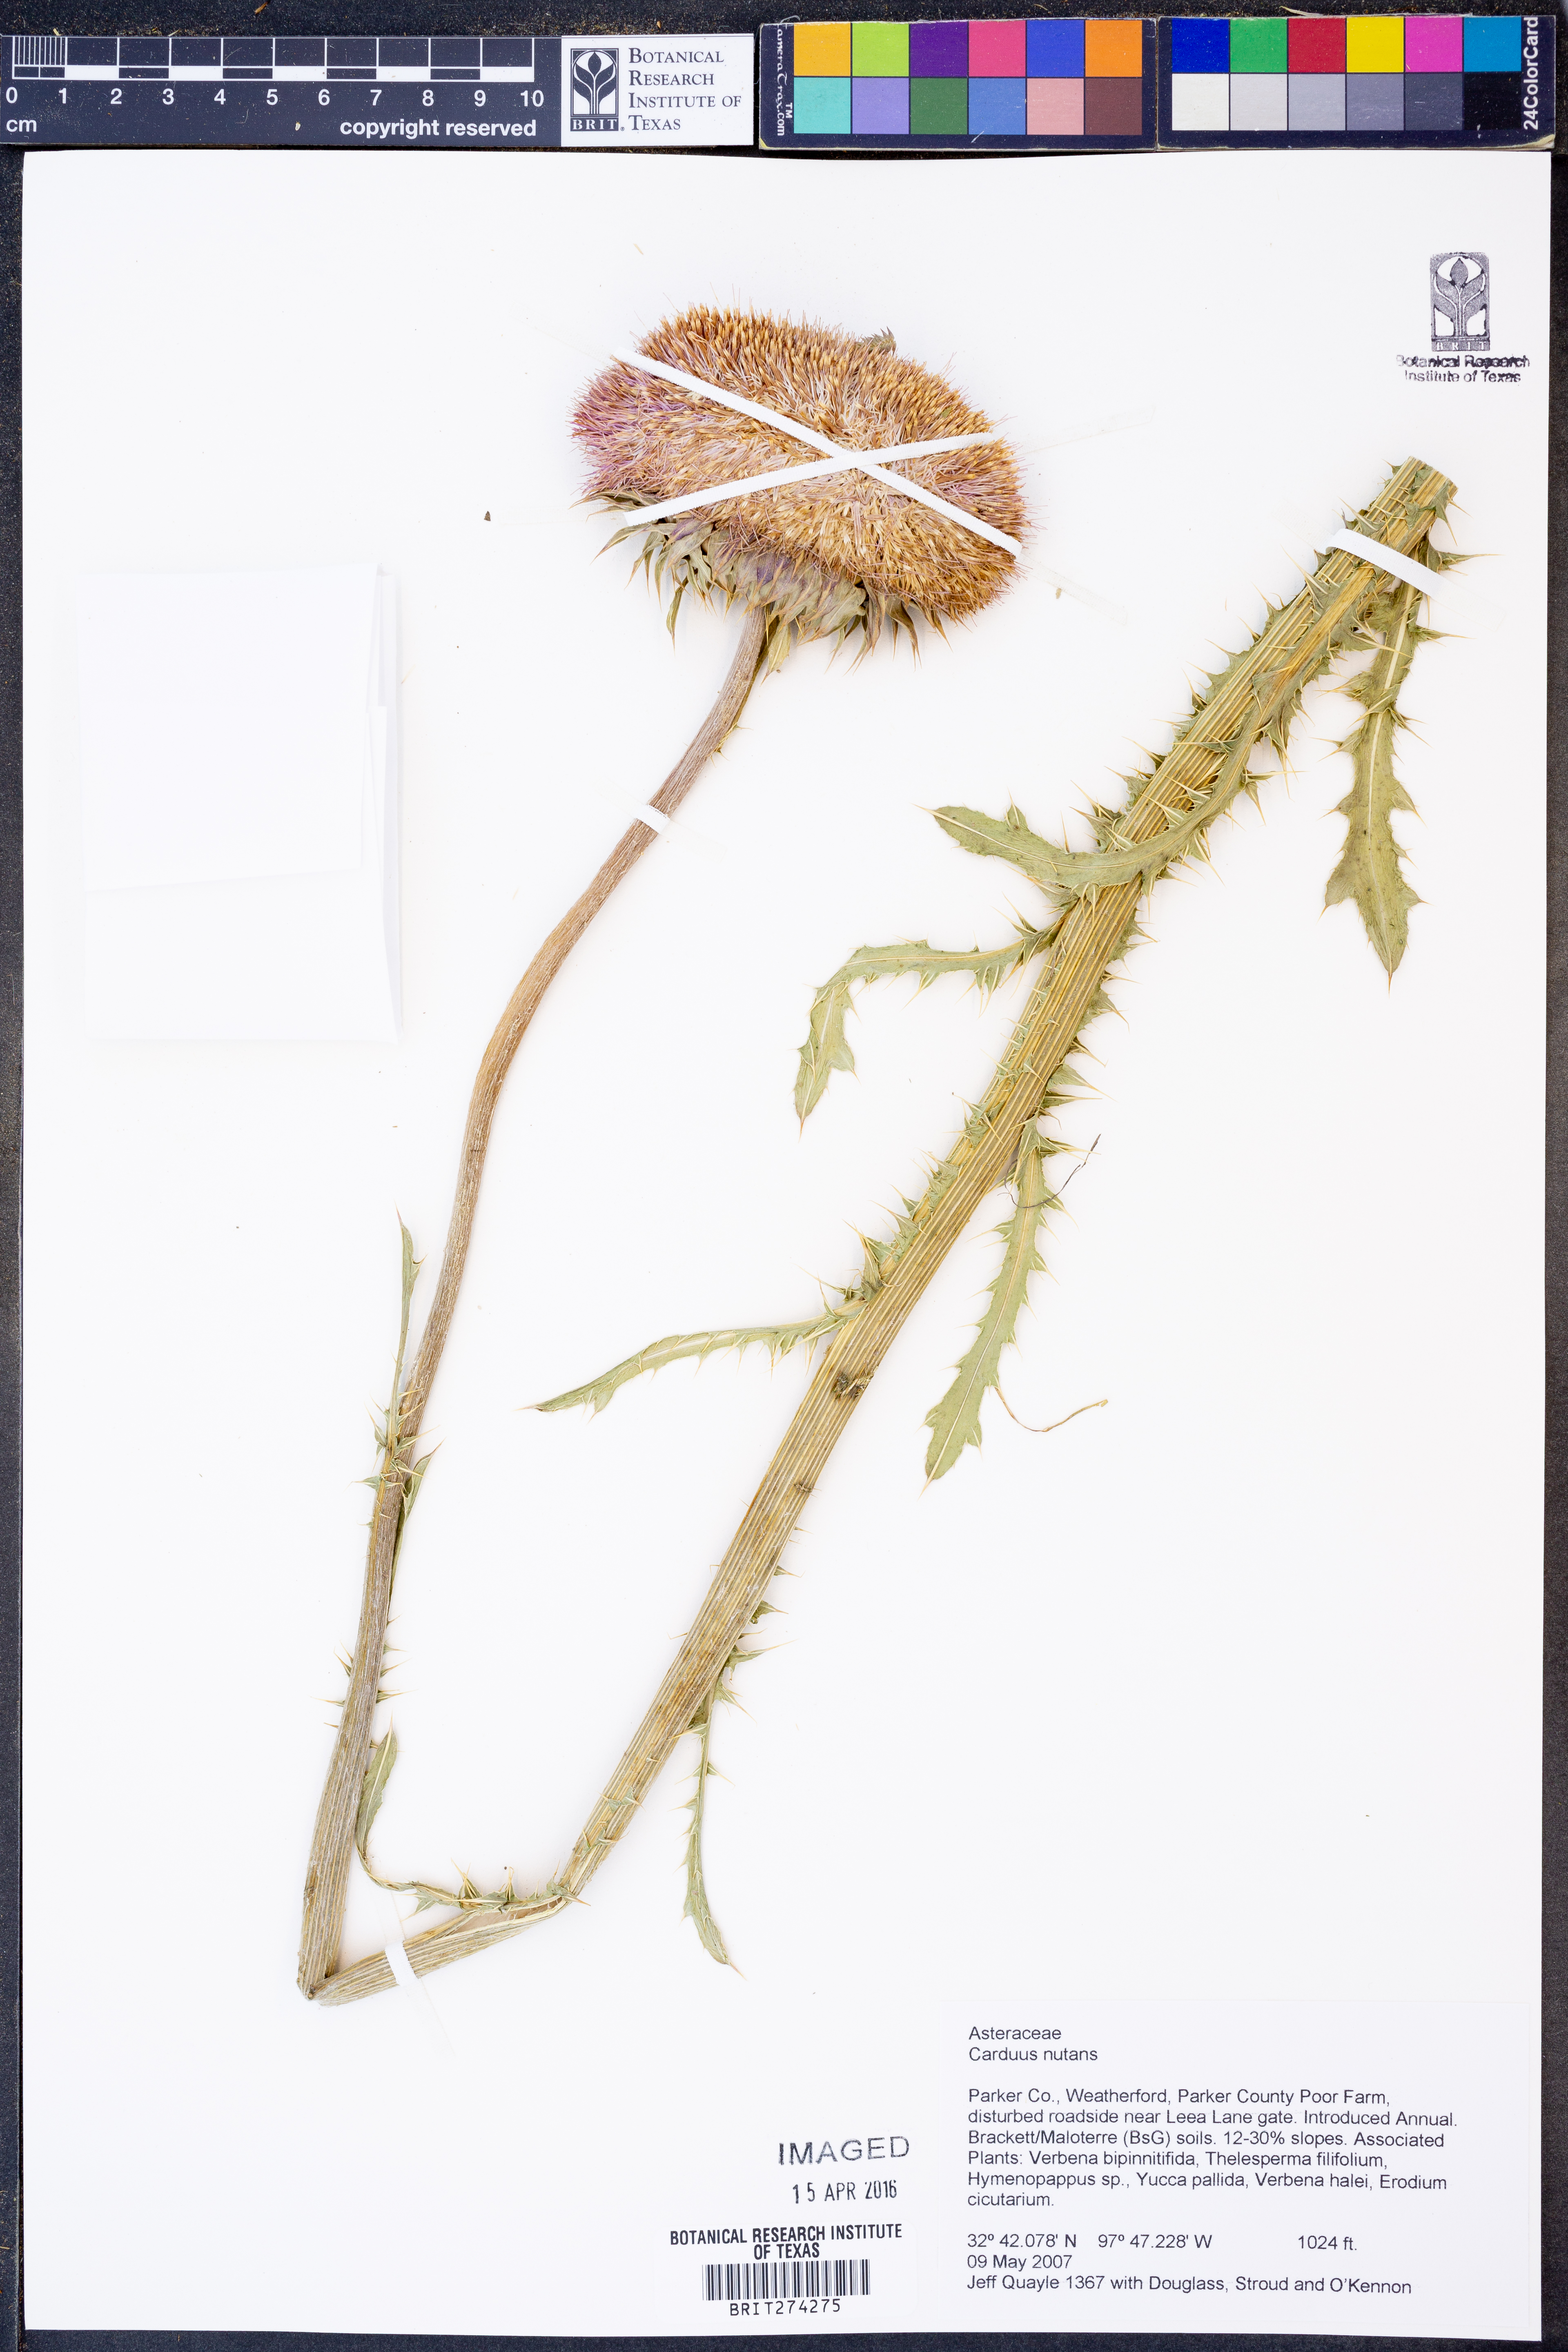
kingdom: Plantae
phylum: Tracheophyta
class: Magnoliopsida
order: Asterales
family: Asteraceae
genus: Carduus
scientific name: Carduus nutans
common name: Musk thistle
